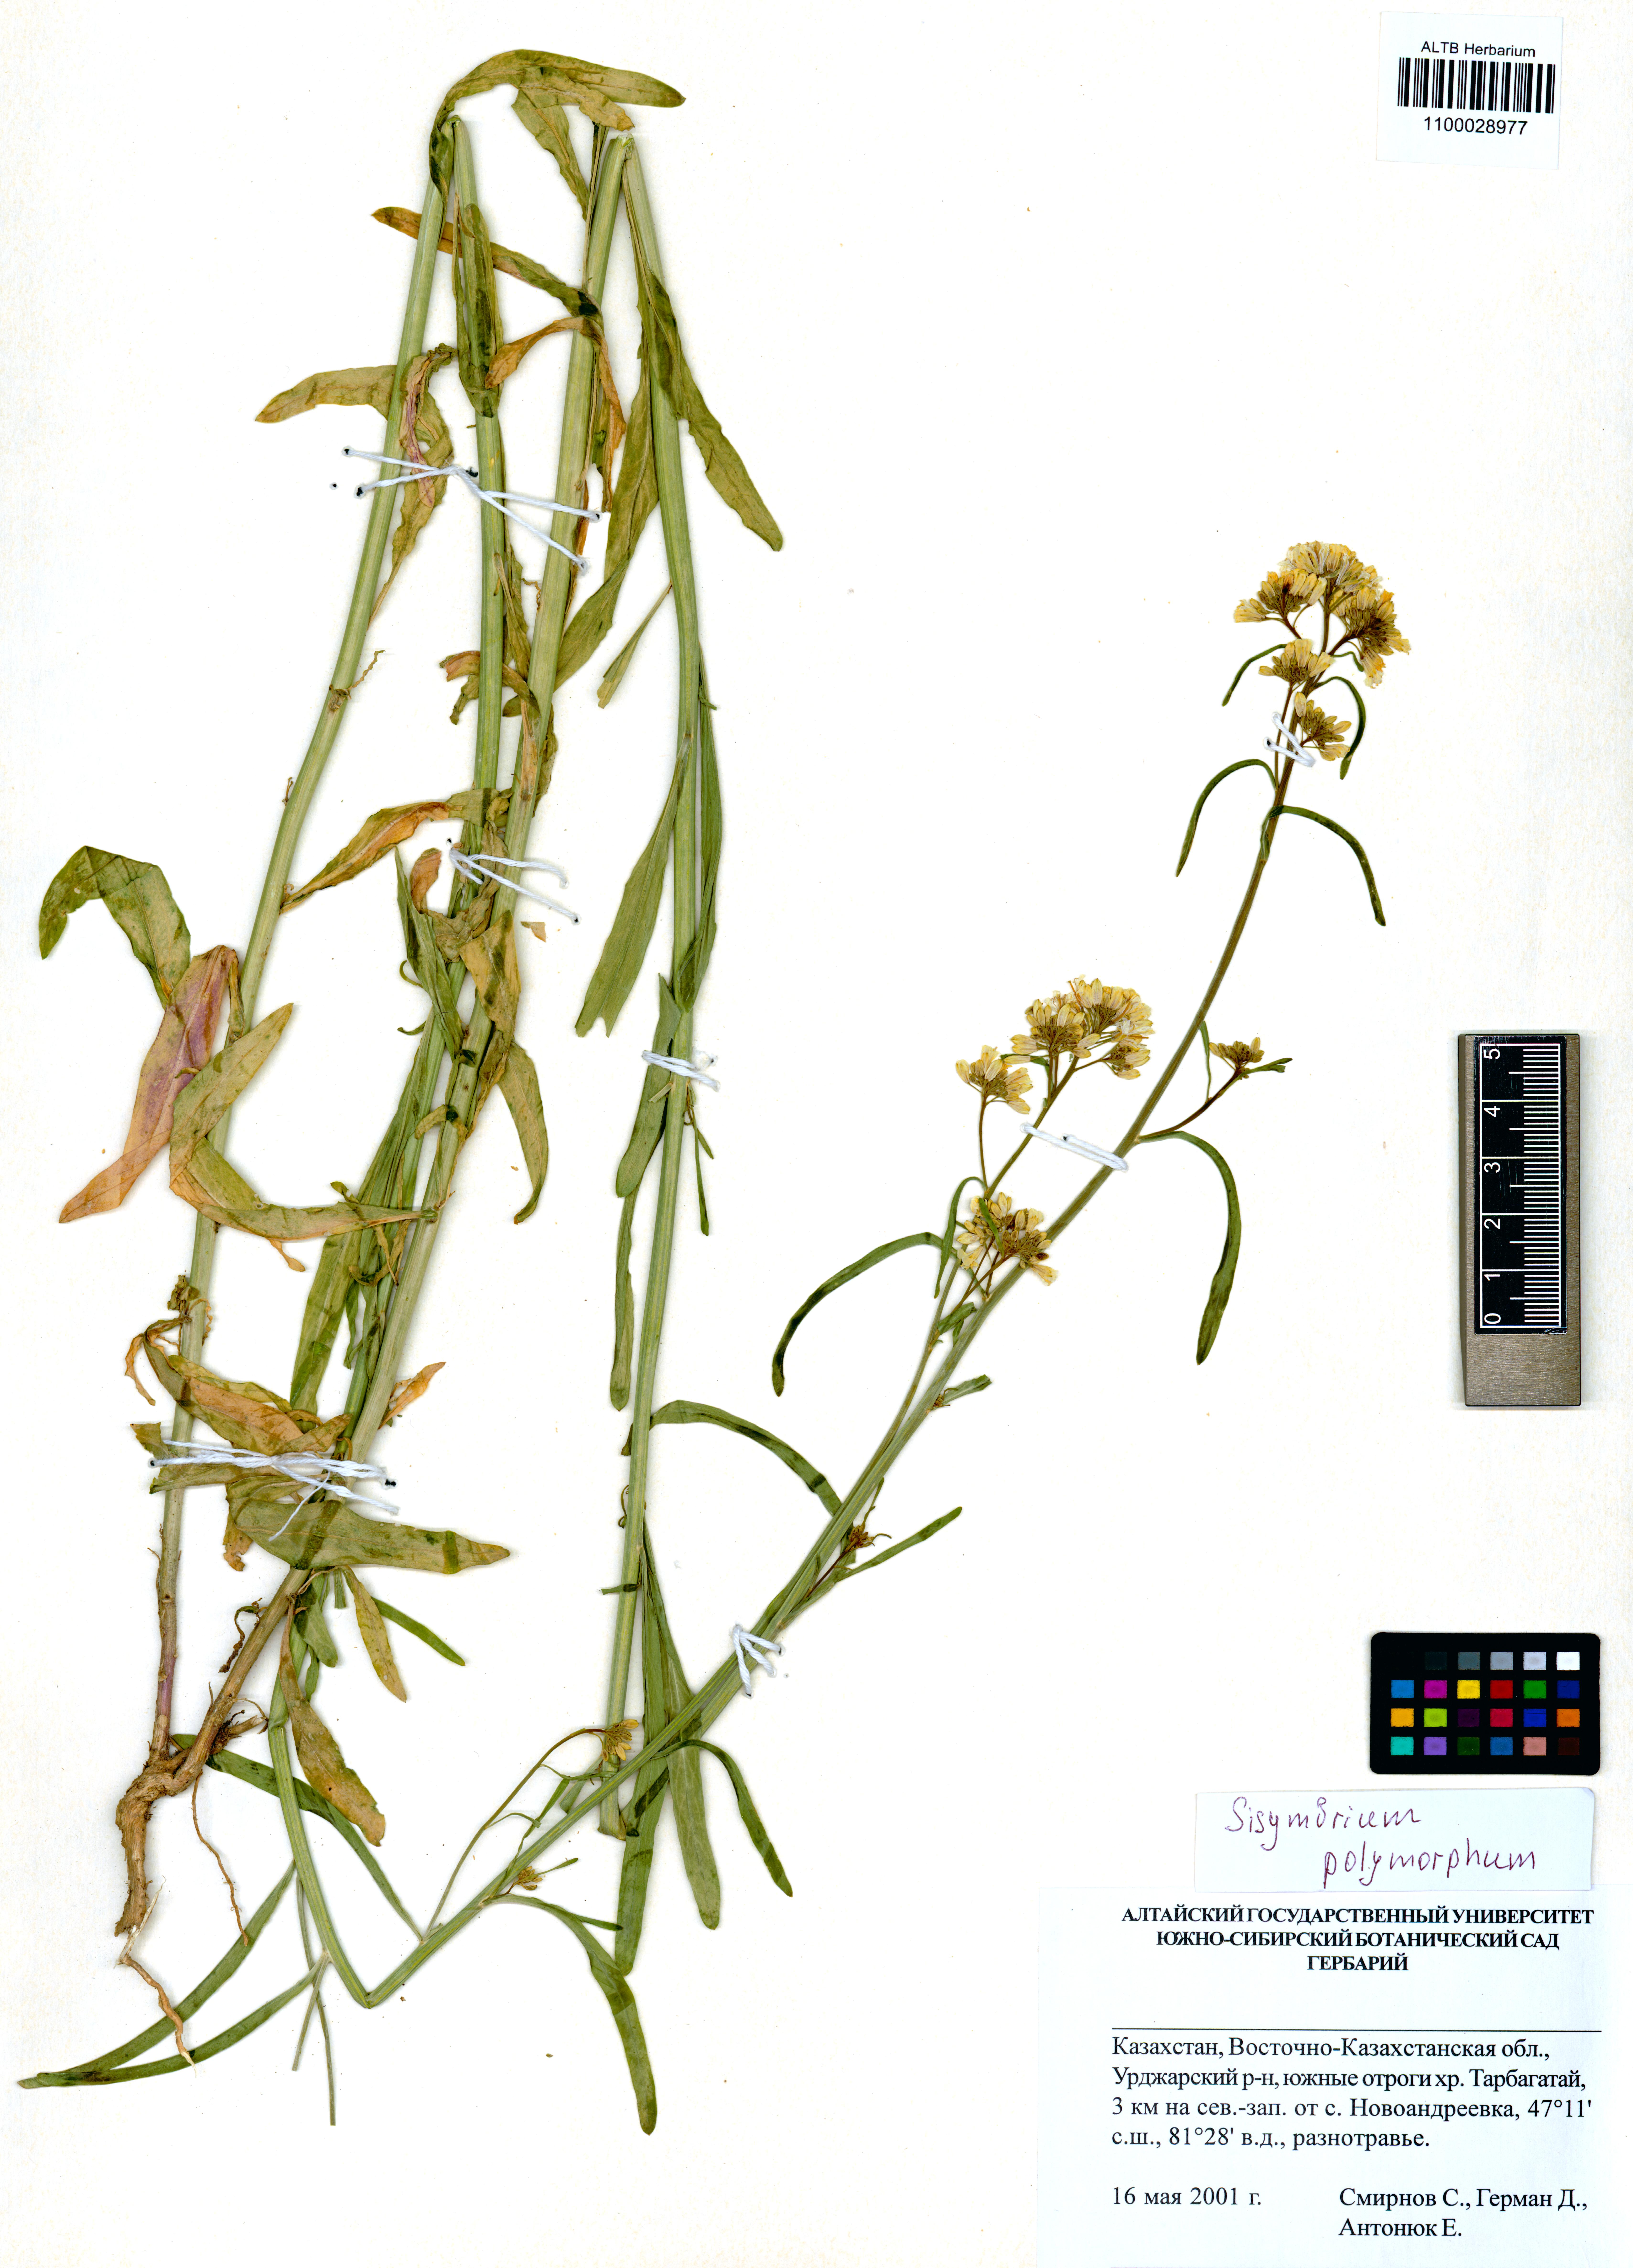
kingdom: Plantae
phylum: Tracheophyta
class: Magnoliopsida
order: Brassicales
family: Brassicaceae
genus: Sisymbrium
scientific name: Sisymbrium polymorphum
